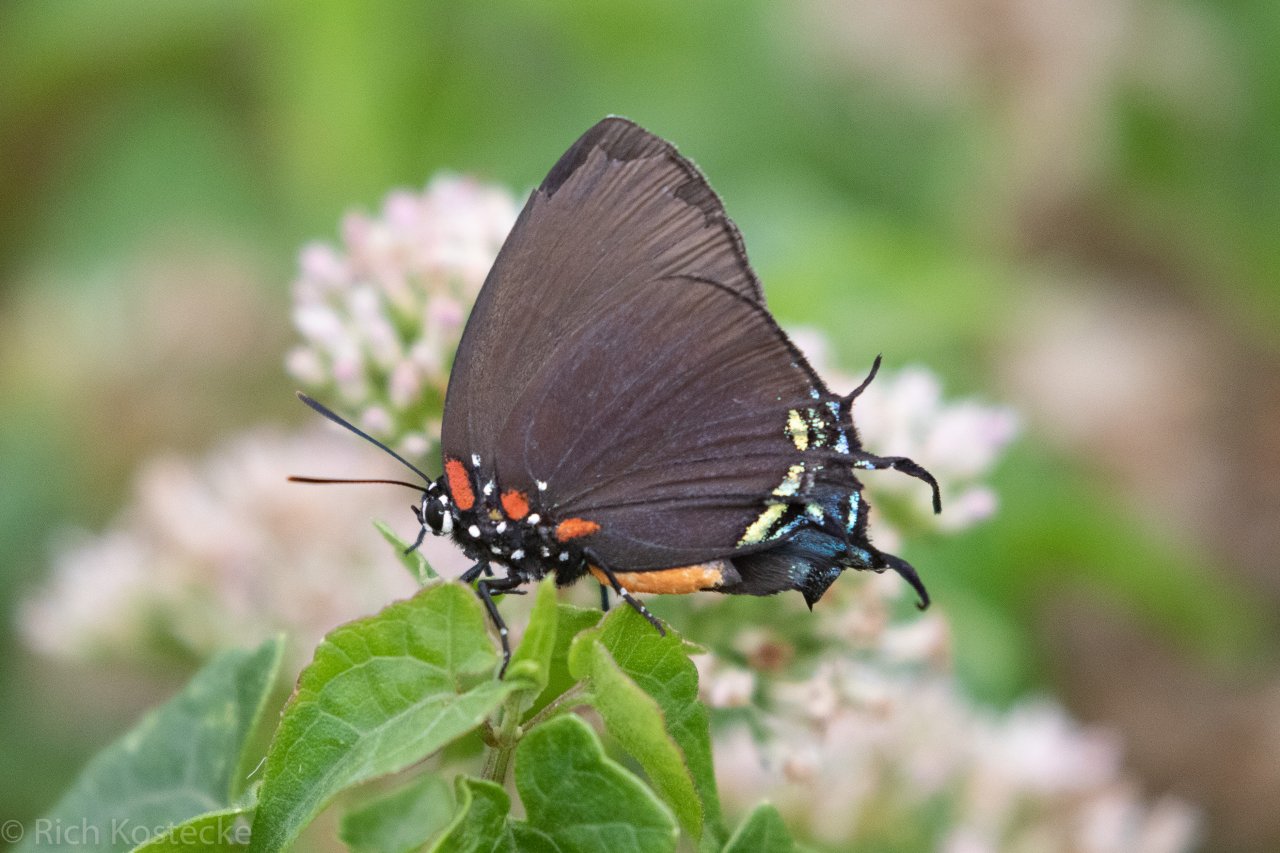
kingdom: Animalia
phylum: Arthropoda
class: Insecta
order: Lepidoptera
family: Lycaenidae
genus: Atlides
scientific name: Atlides halesus
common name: Great Purple Hairstreak
